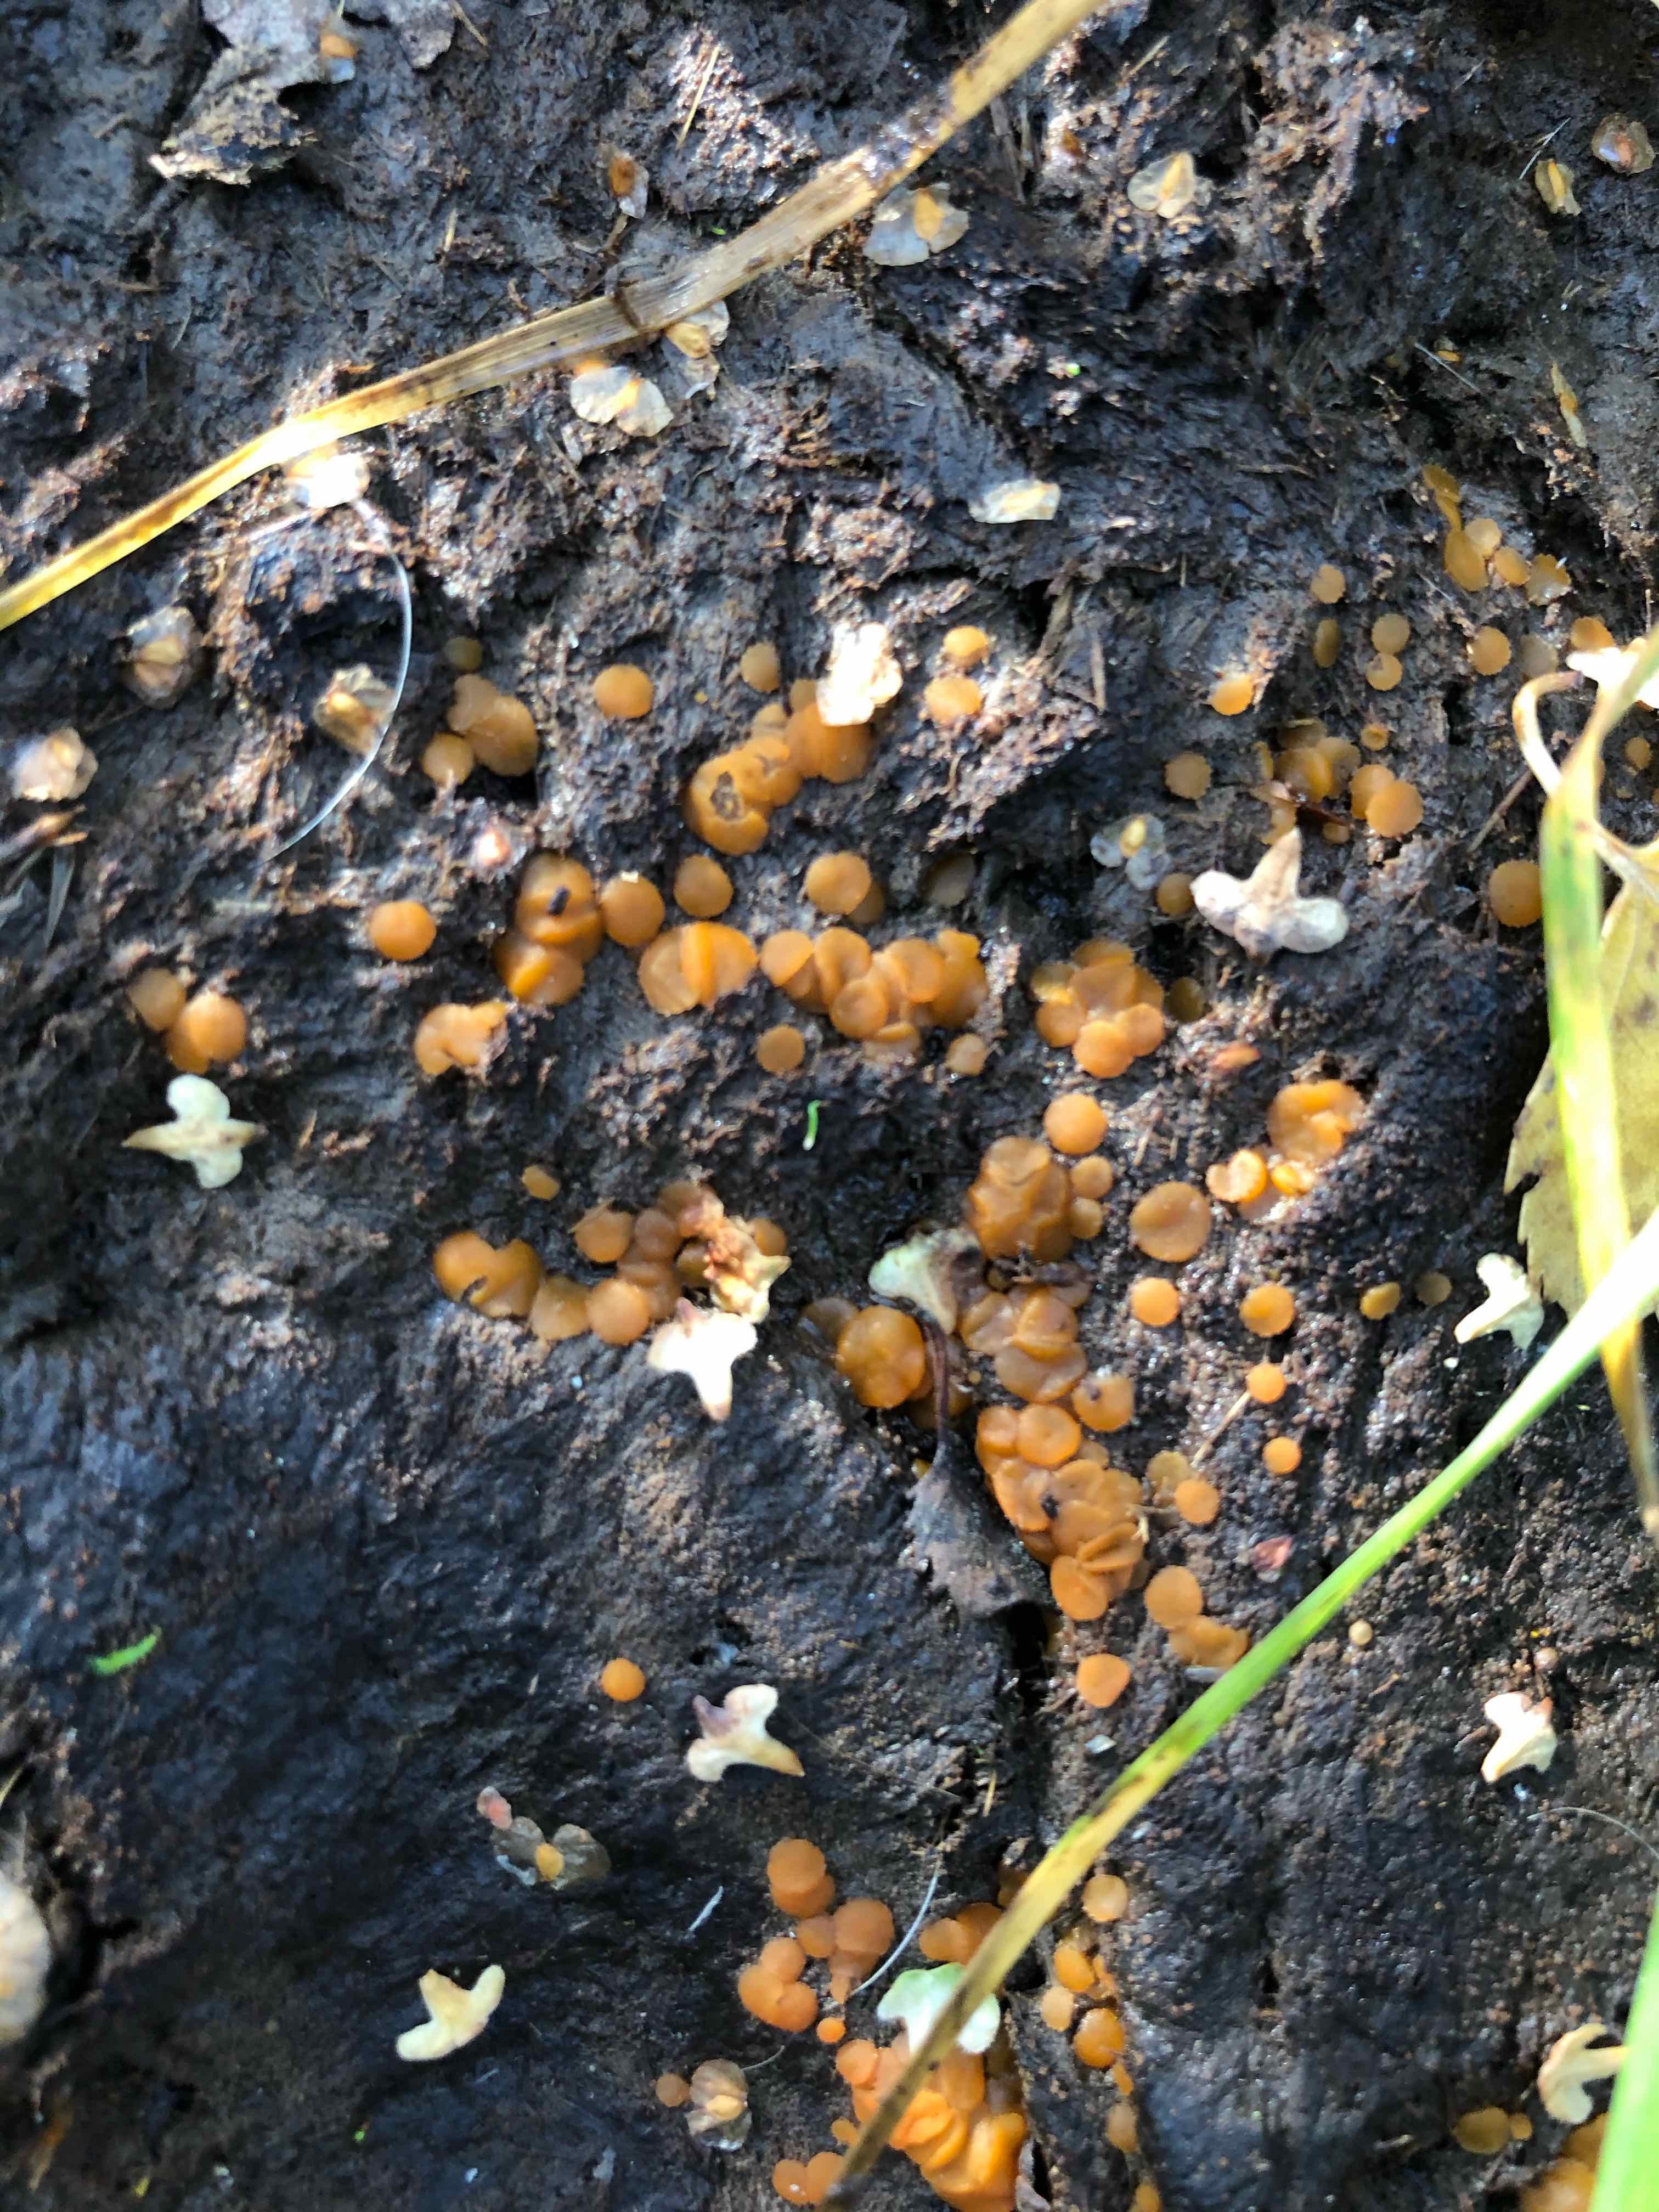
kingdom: Fungi
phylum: Ascomycota
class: Pezizomycetes
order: Pezizales
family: Pyronemataceae
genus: Cheilymenia
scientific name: Cheilymenia granulata
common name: møgbæger
